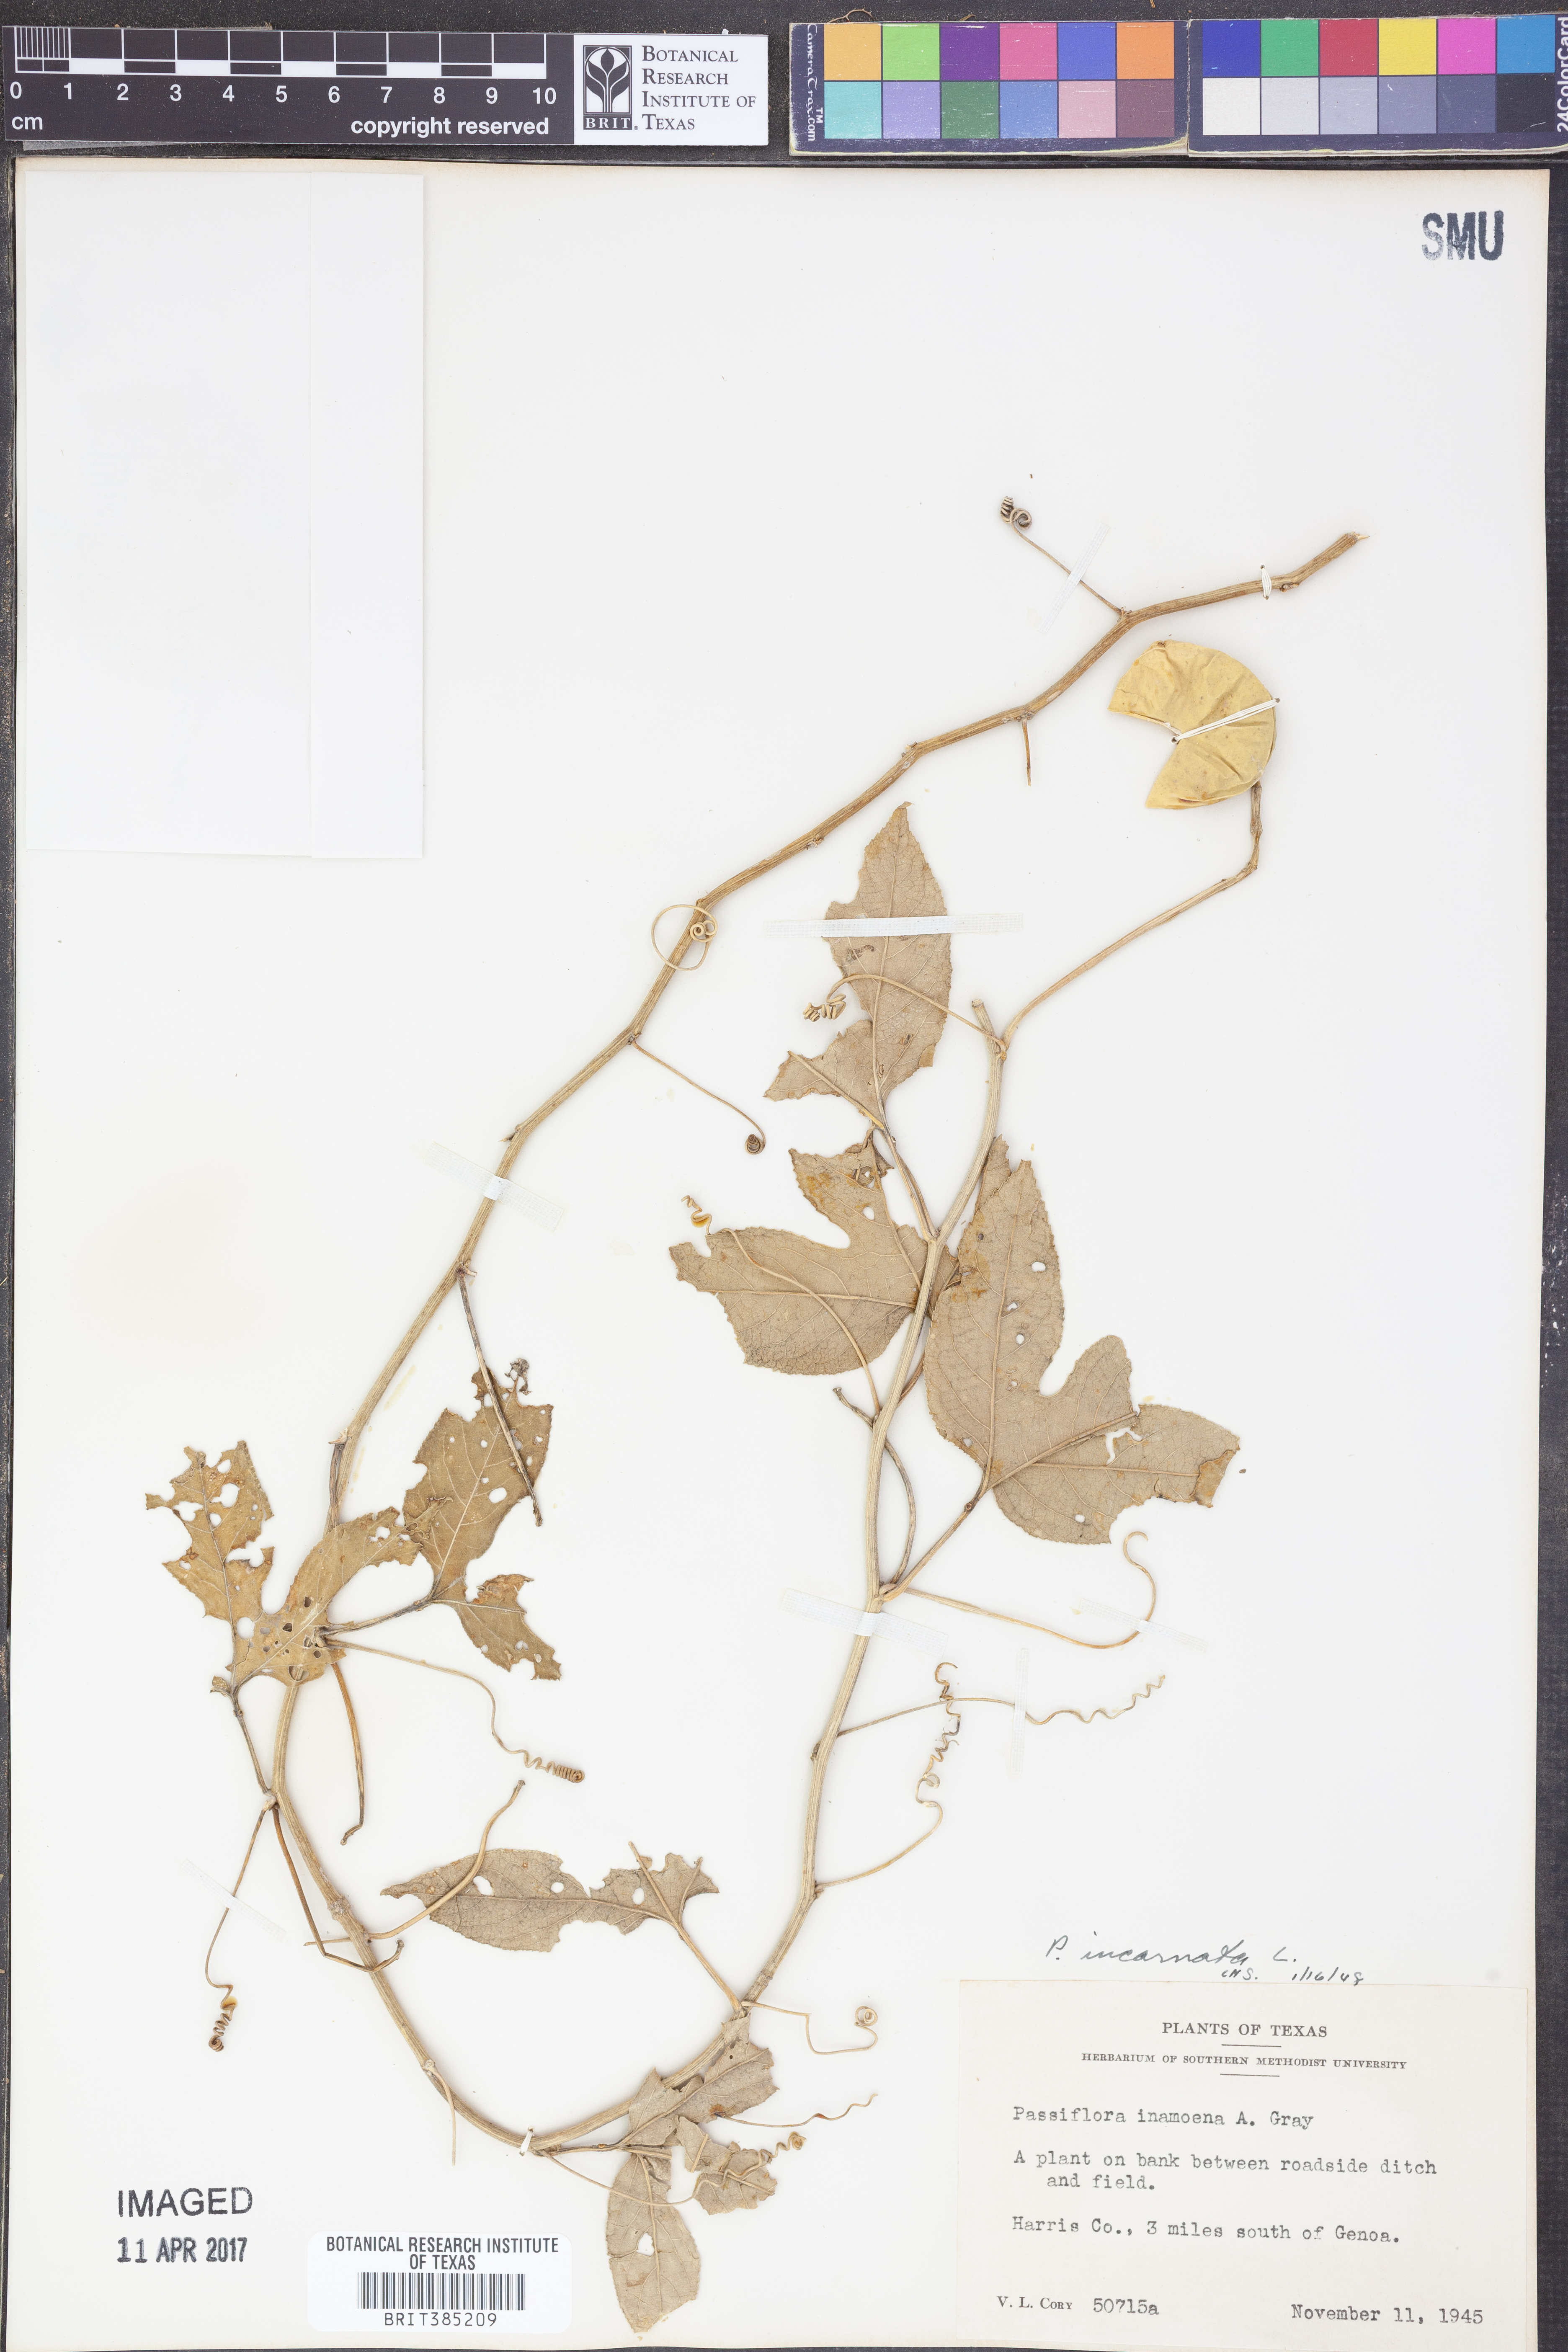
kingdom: Plantae
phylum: Tracheophyta
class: Magnoliopsida
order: Malpighiales
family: Passifloraceae
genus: Passiflora
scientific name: Passiflora incarnata
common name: Apricot-vine
